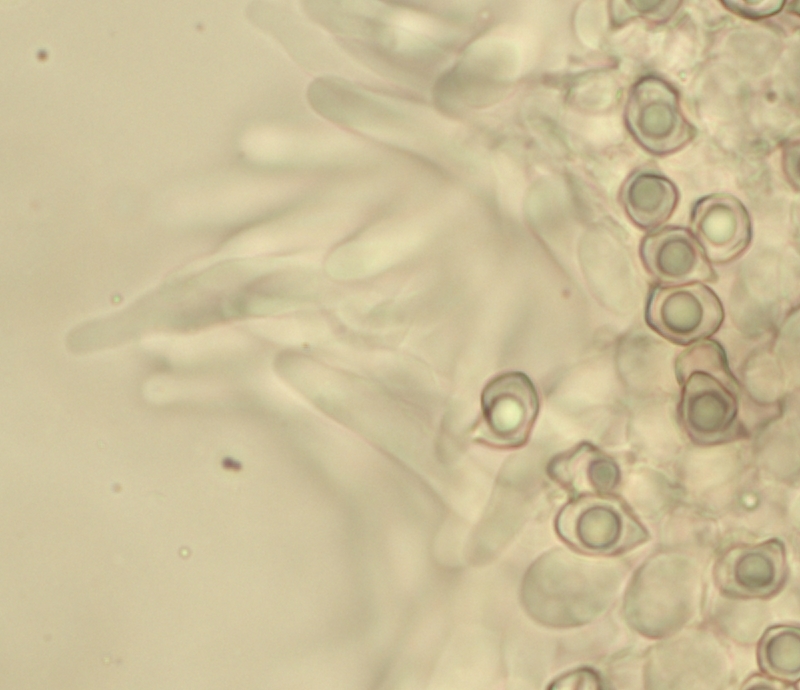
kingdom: Fungi
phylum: Basidiomycota
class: Agaricomycetes
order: Agaricales
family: Entolomataceae
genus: Entoloma
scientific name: Entoloma porphyrogriseum
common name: porfyrgrå rødblad
